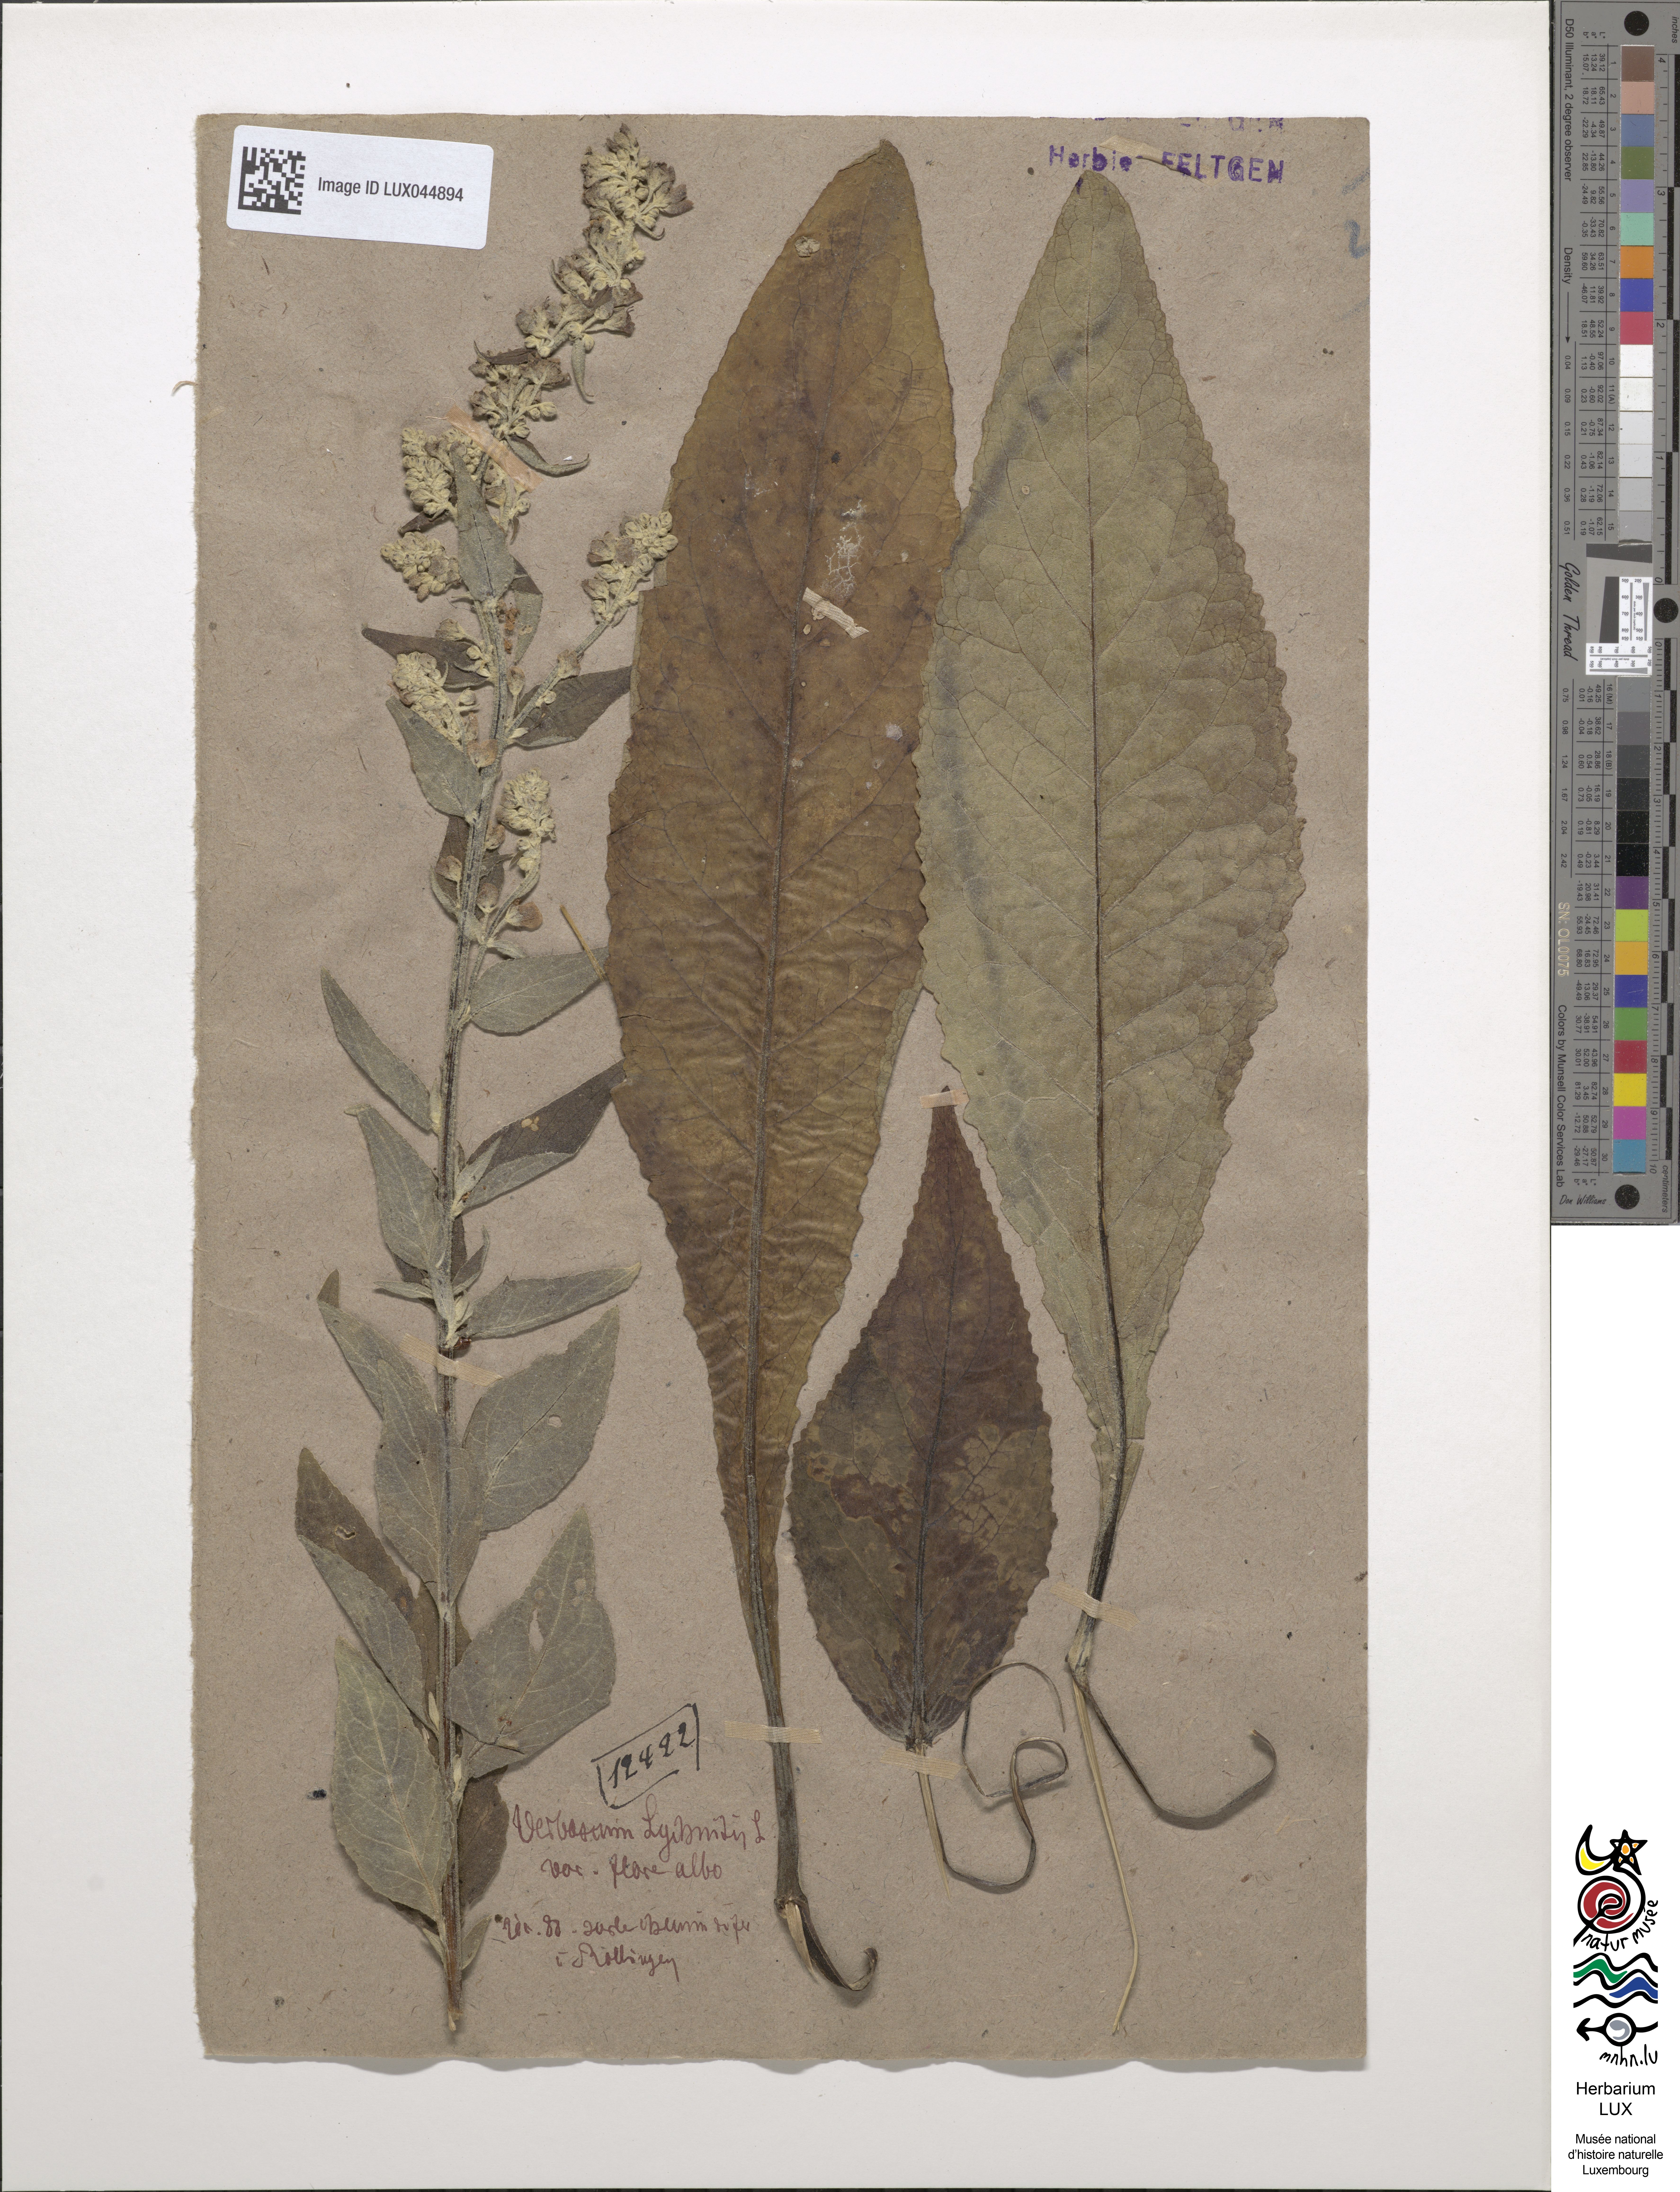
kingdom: Plantae
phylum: Tracheophyta
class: Magnoliopsida
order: Lamiales
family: Scrophulariaceae
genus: Verbascum
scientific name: Verbascum lychnitis
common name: White mullein
